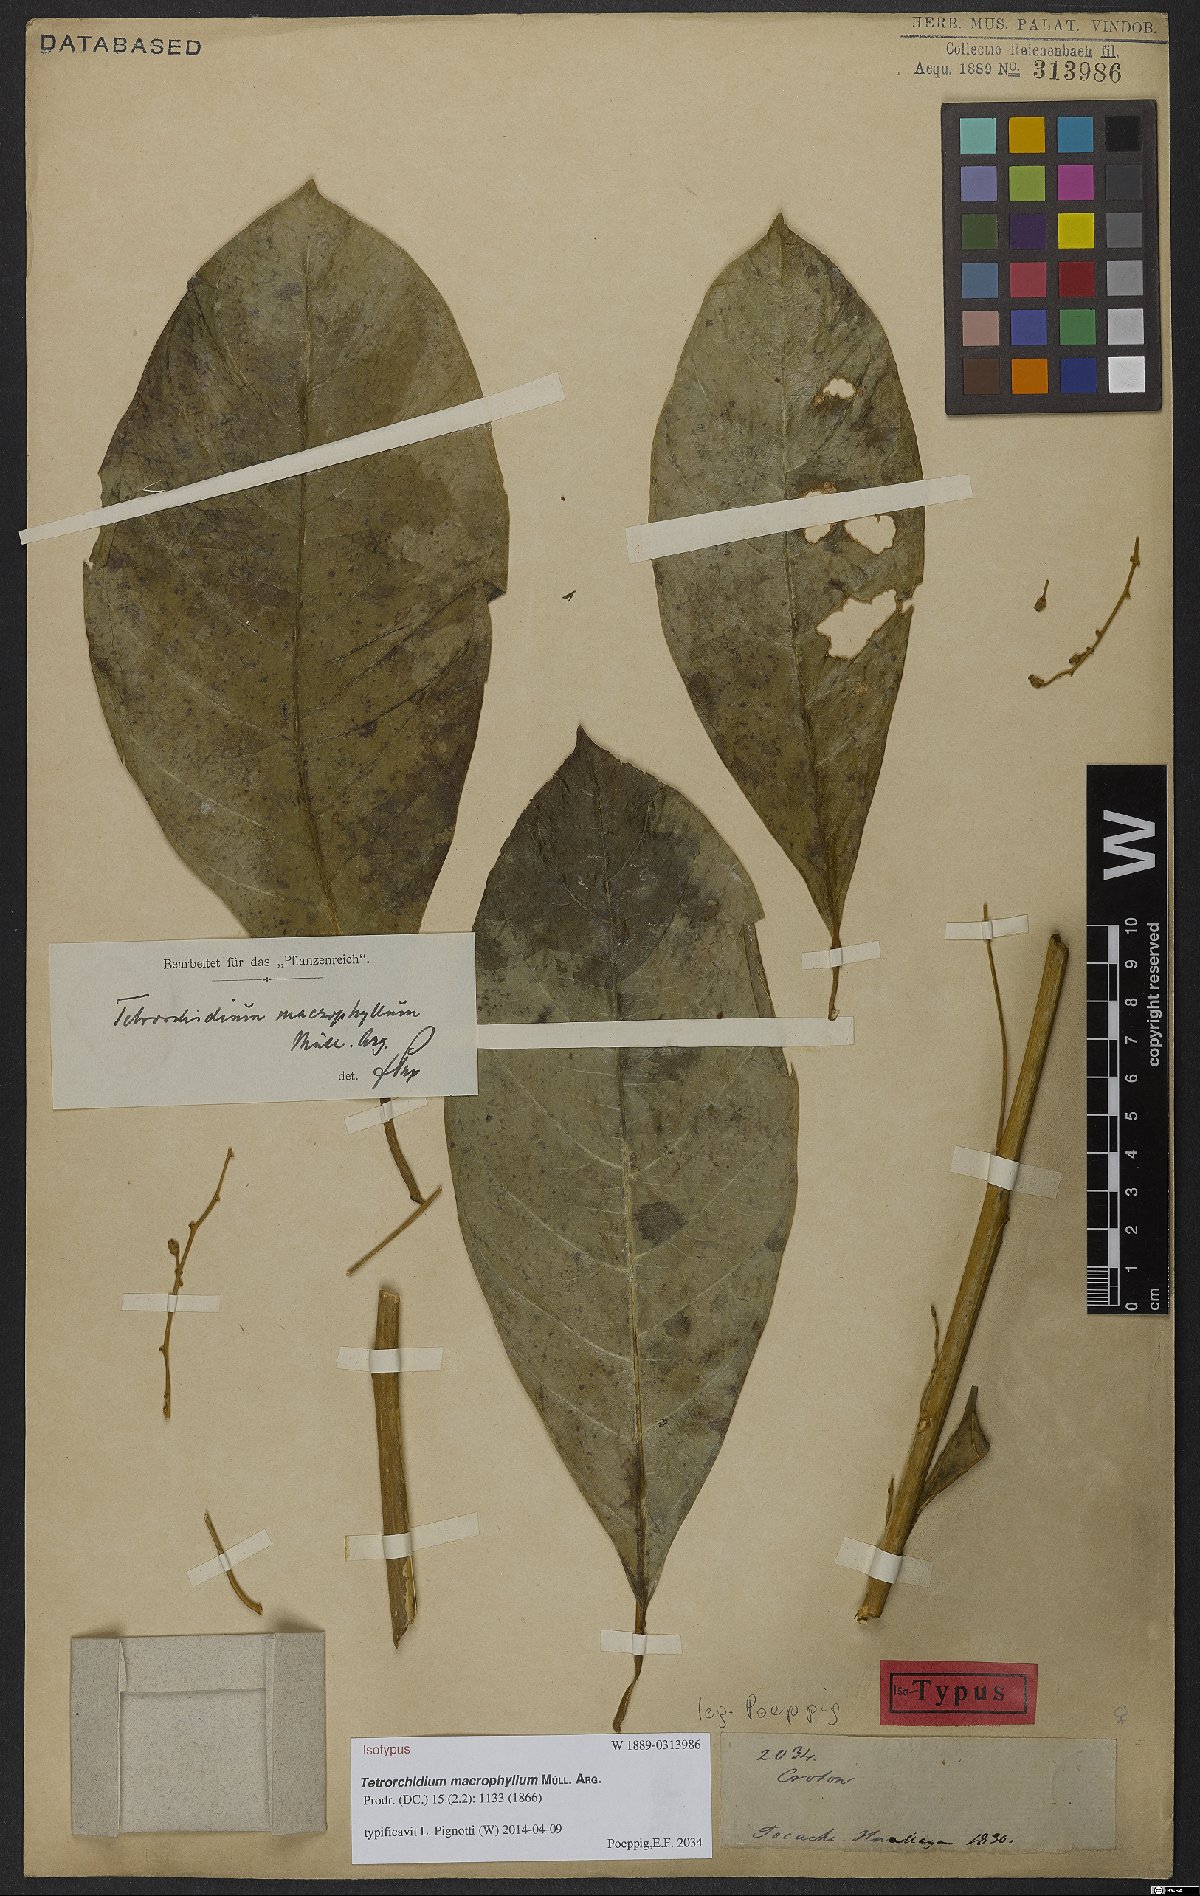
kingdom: Plantae
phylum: Tracheophyta
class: Magnoliopsida
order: Malpighiales
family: Euphorbiaceae
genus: Tetrorchidium
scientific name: Tetrorchidium macrophyllum
